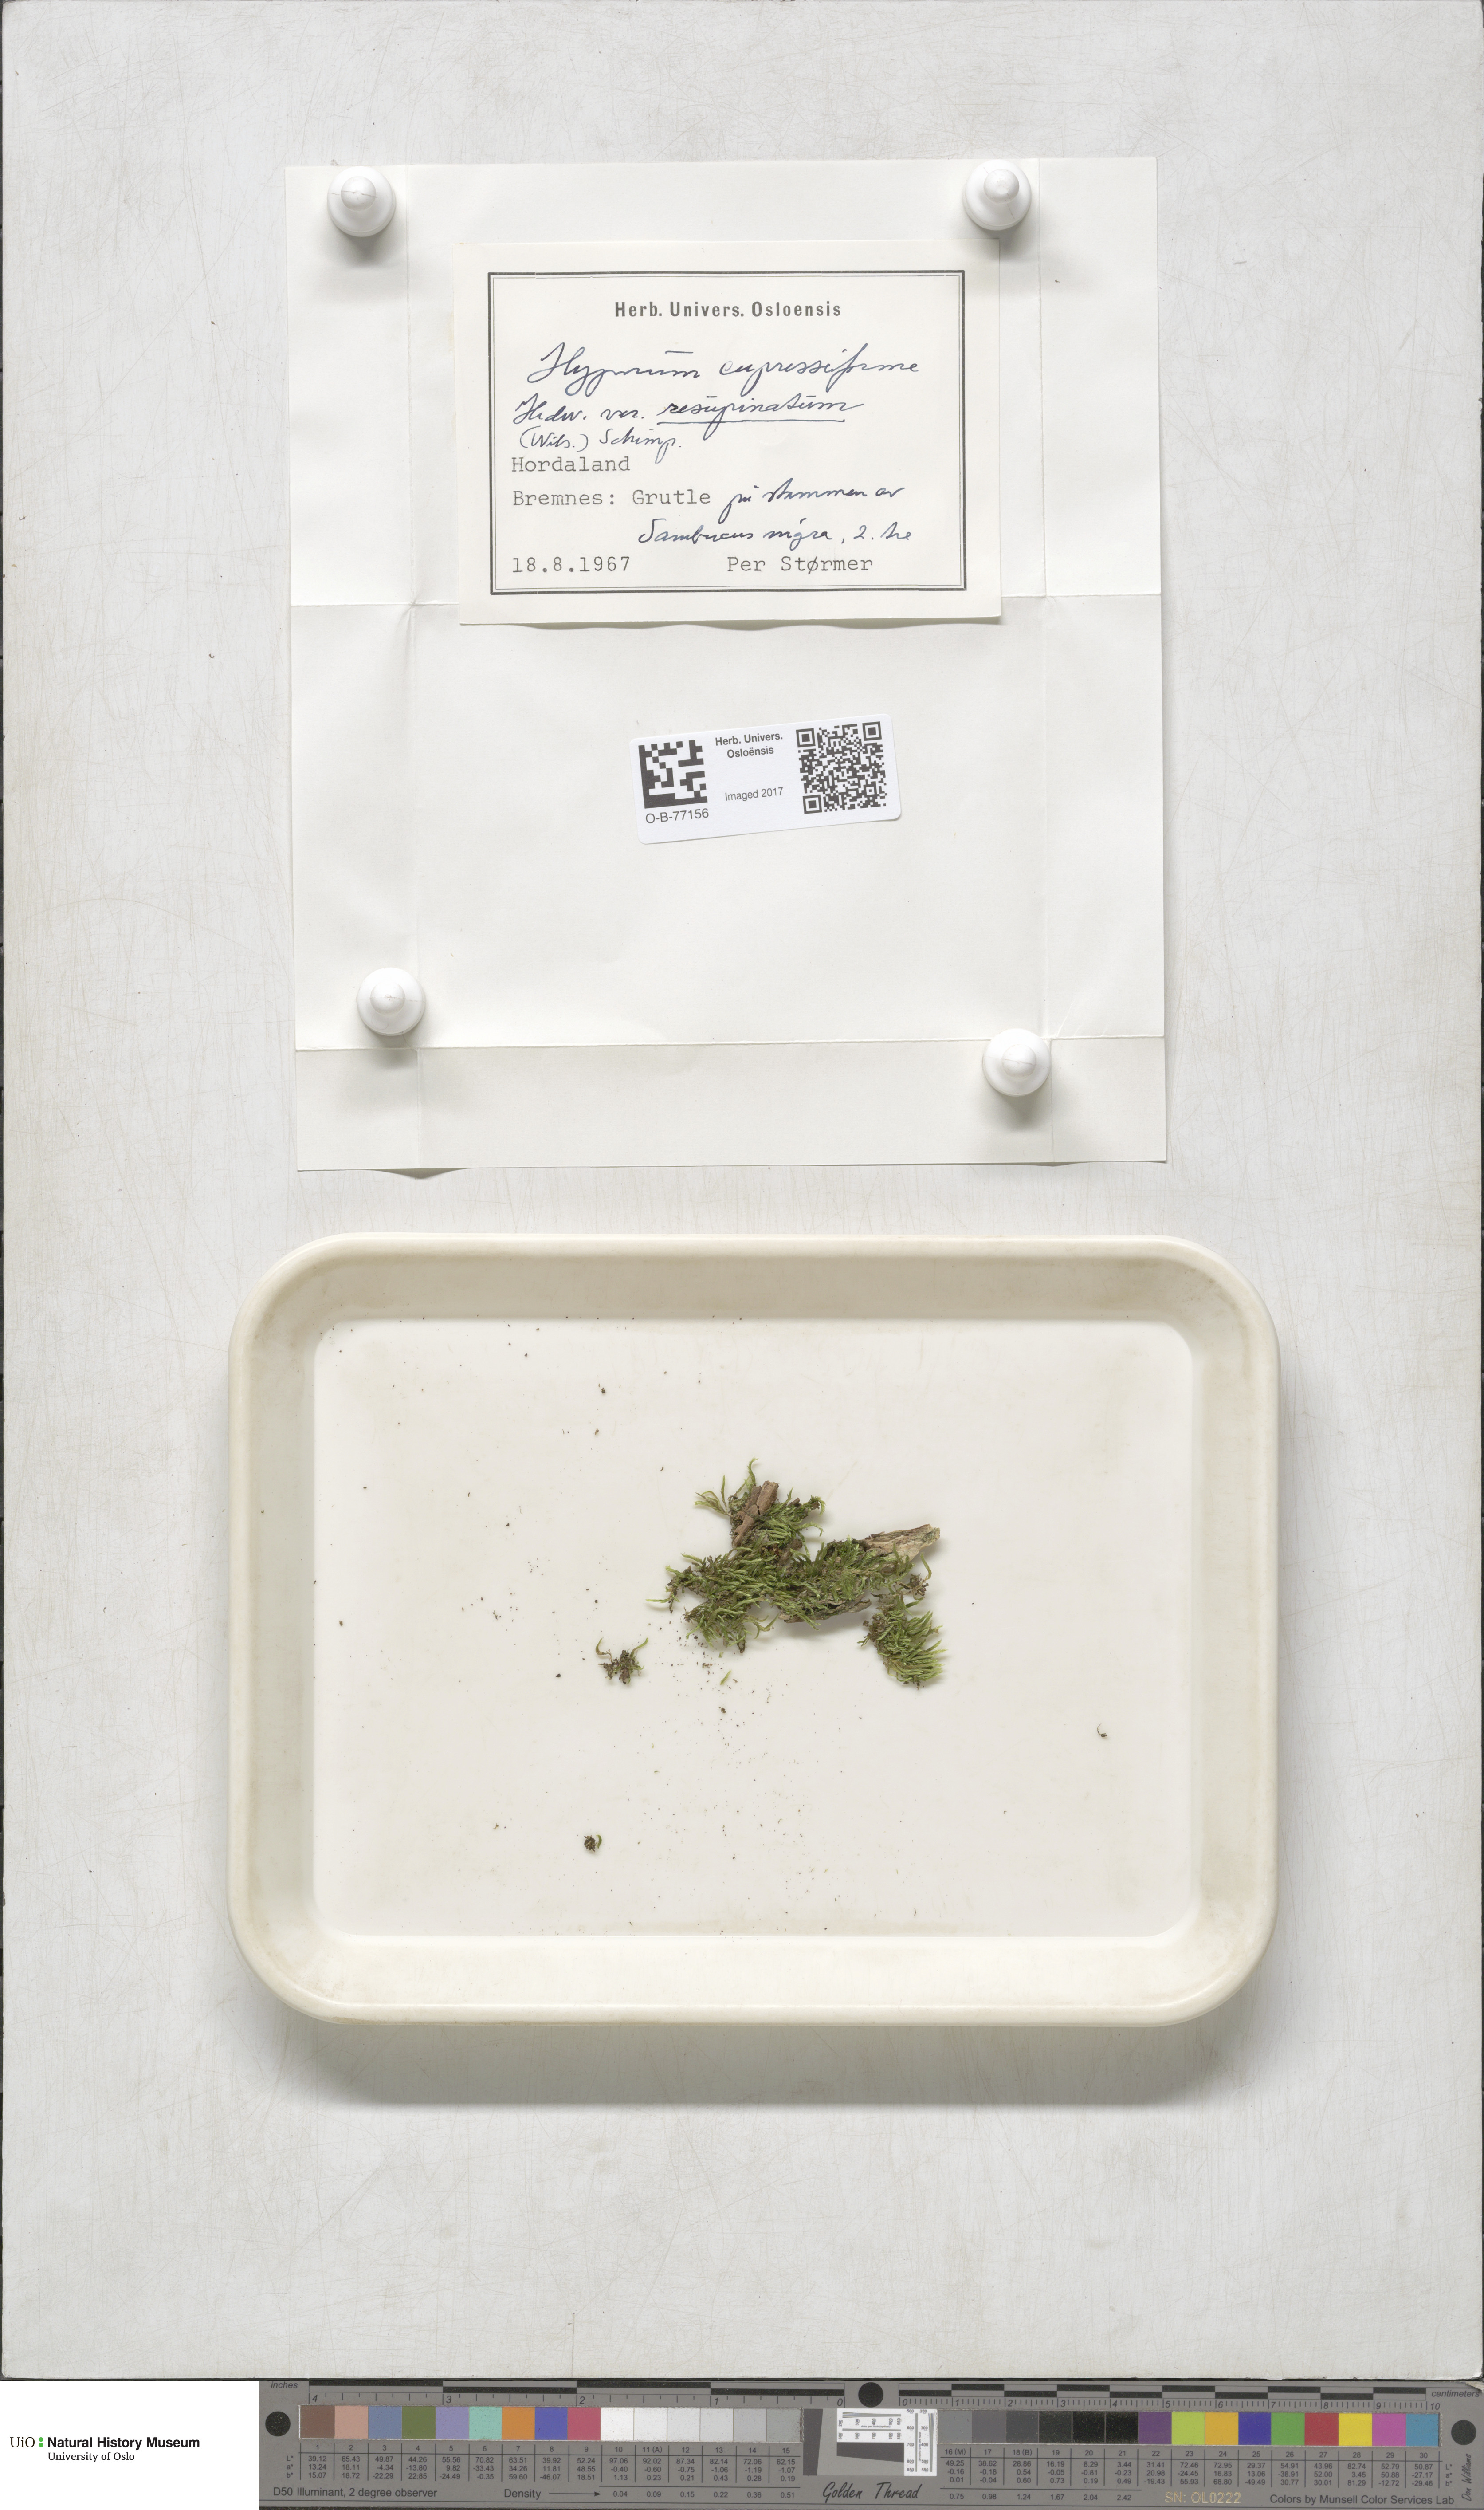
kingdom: Plantae
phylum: Bryophyta
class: Bryopsida
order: Hypnales
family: Hypnaceae
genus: Hypnum
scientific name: Hypnum cupressiforme
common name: Cypress-leaved plait-moss
